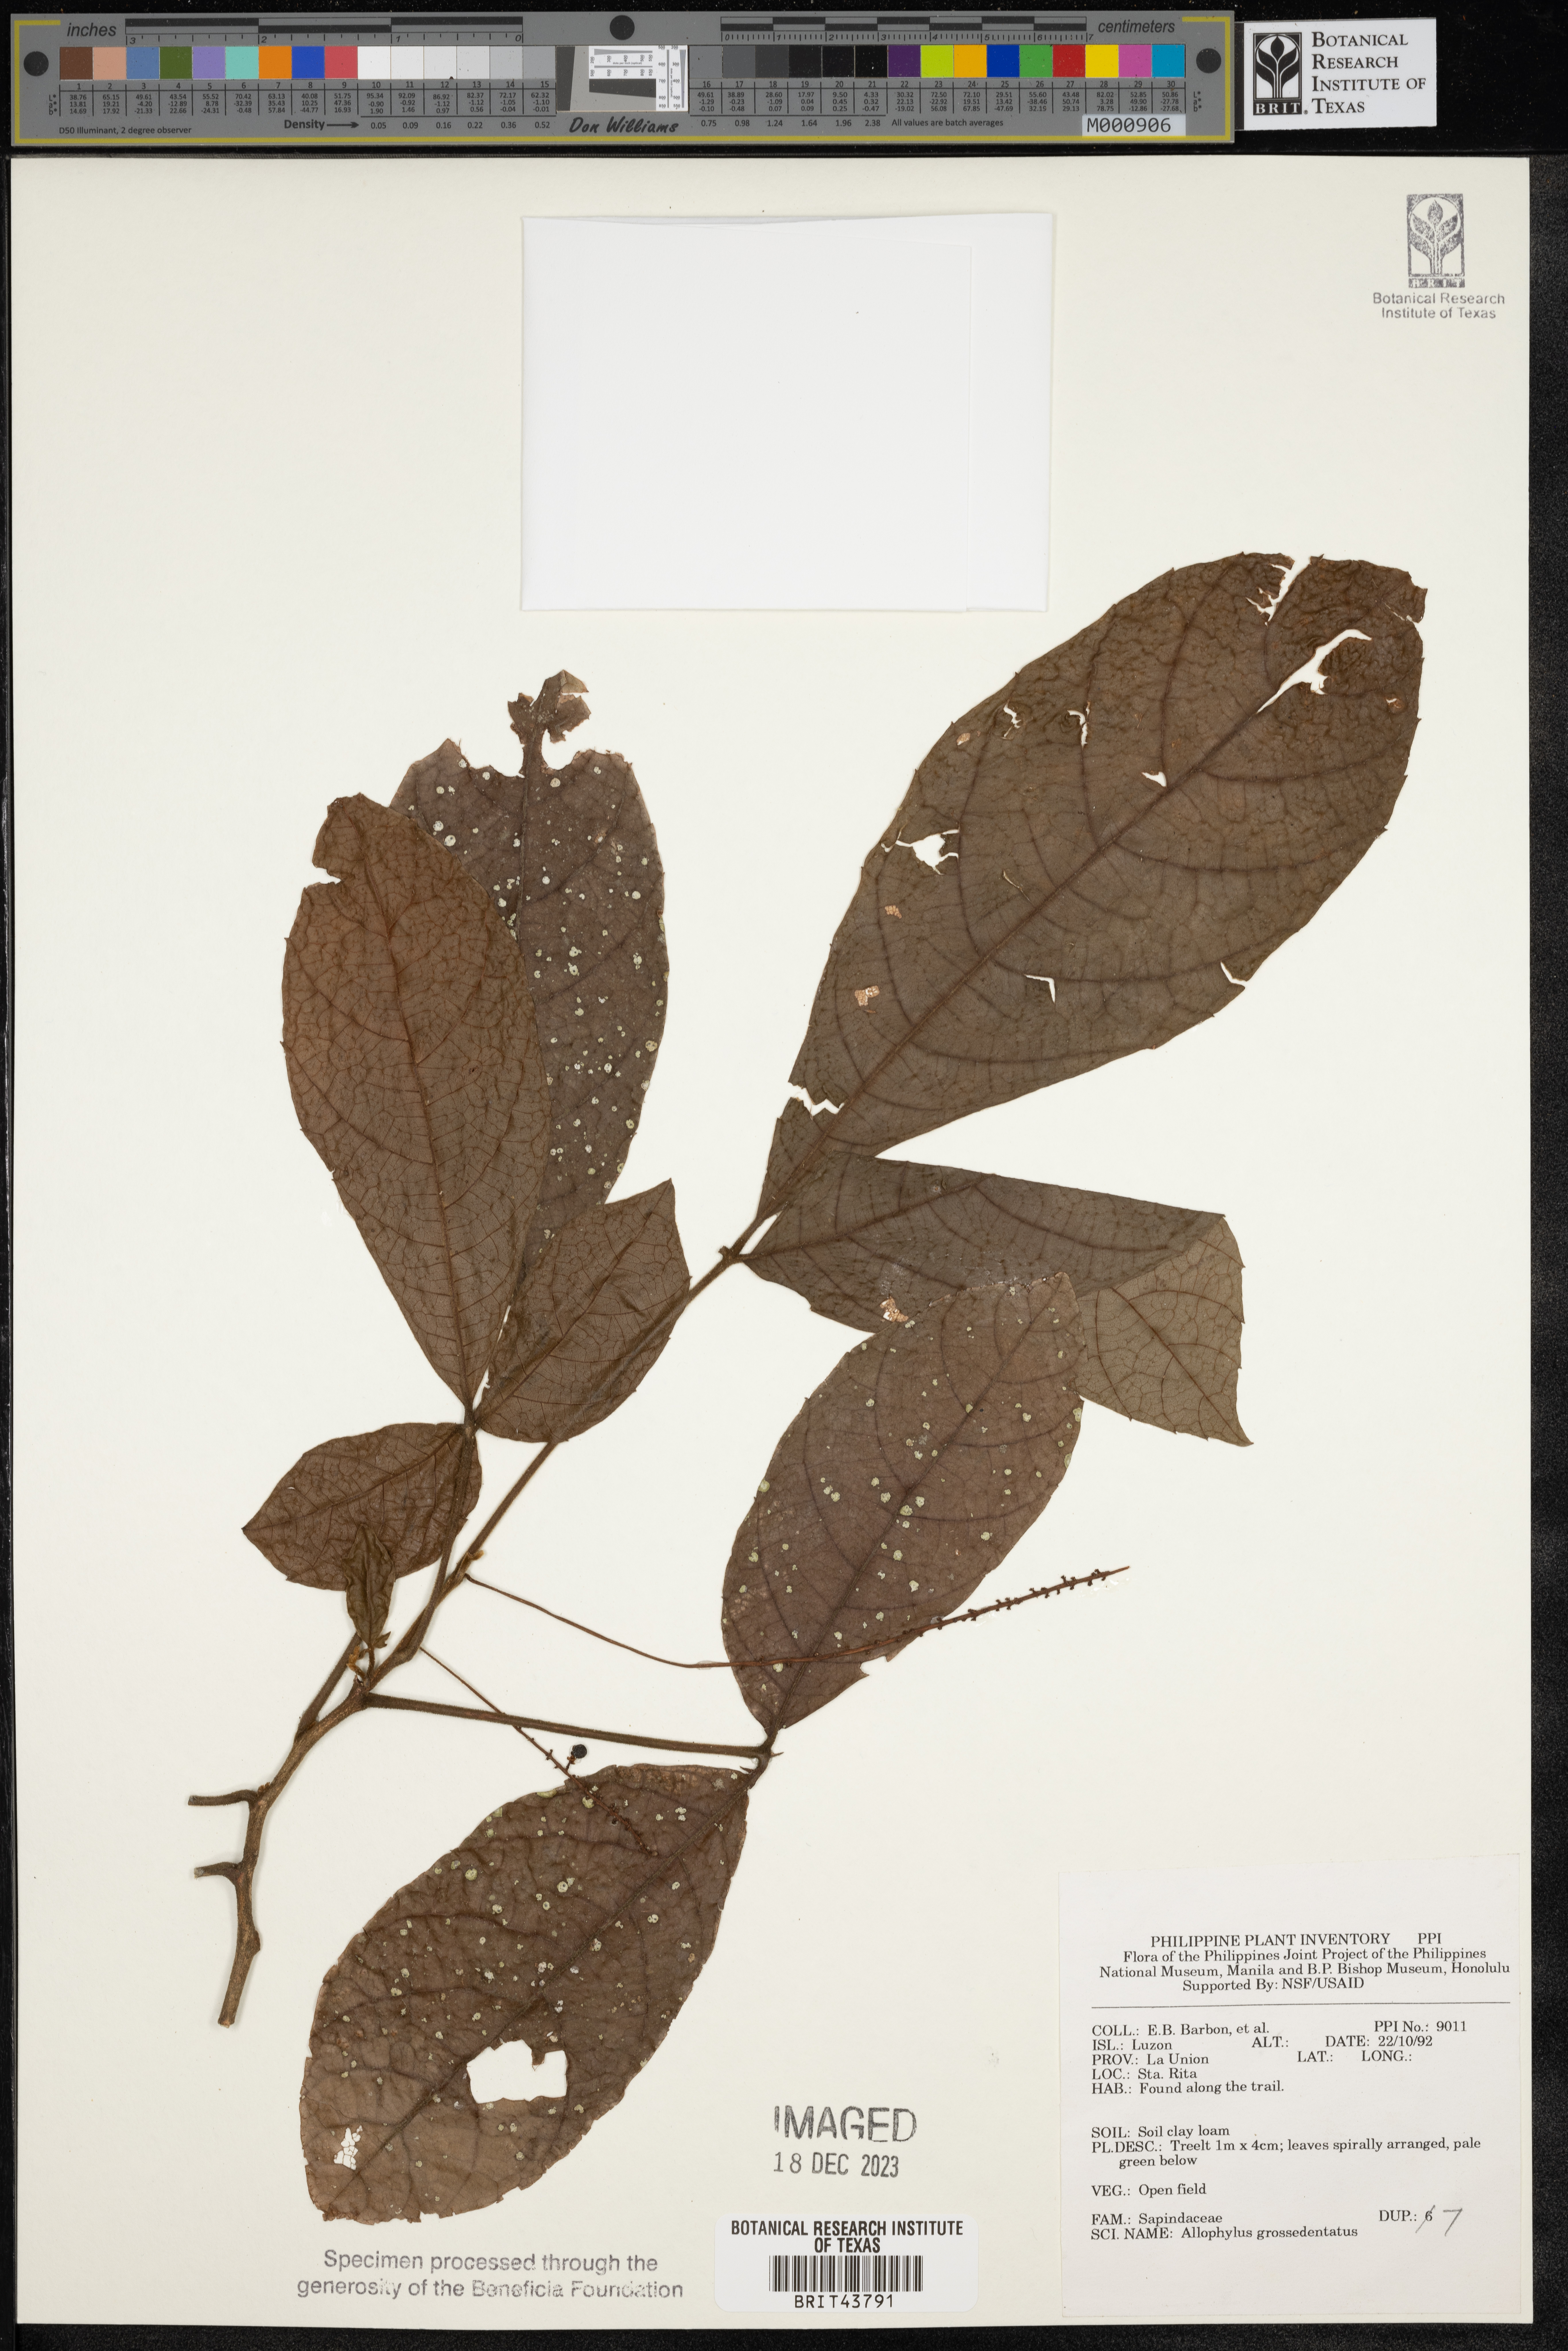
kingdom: Plantae
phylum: Tracheophyta
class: Magnoliopsida
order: Sapindales
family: Sapindaceae
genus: Allophylus
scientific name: Allophylus grossedentatus
